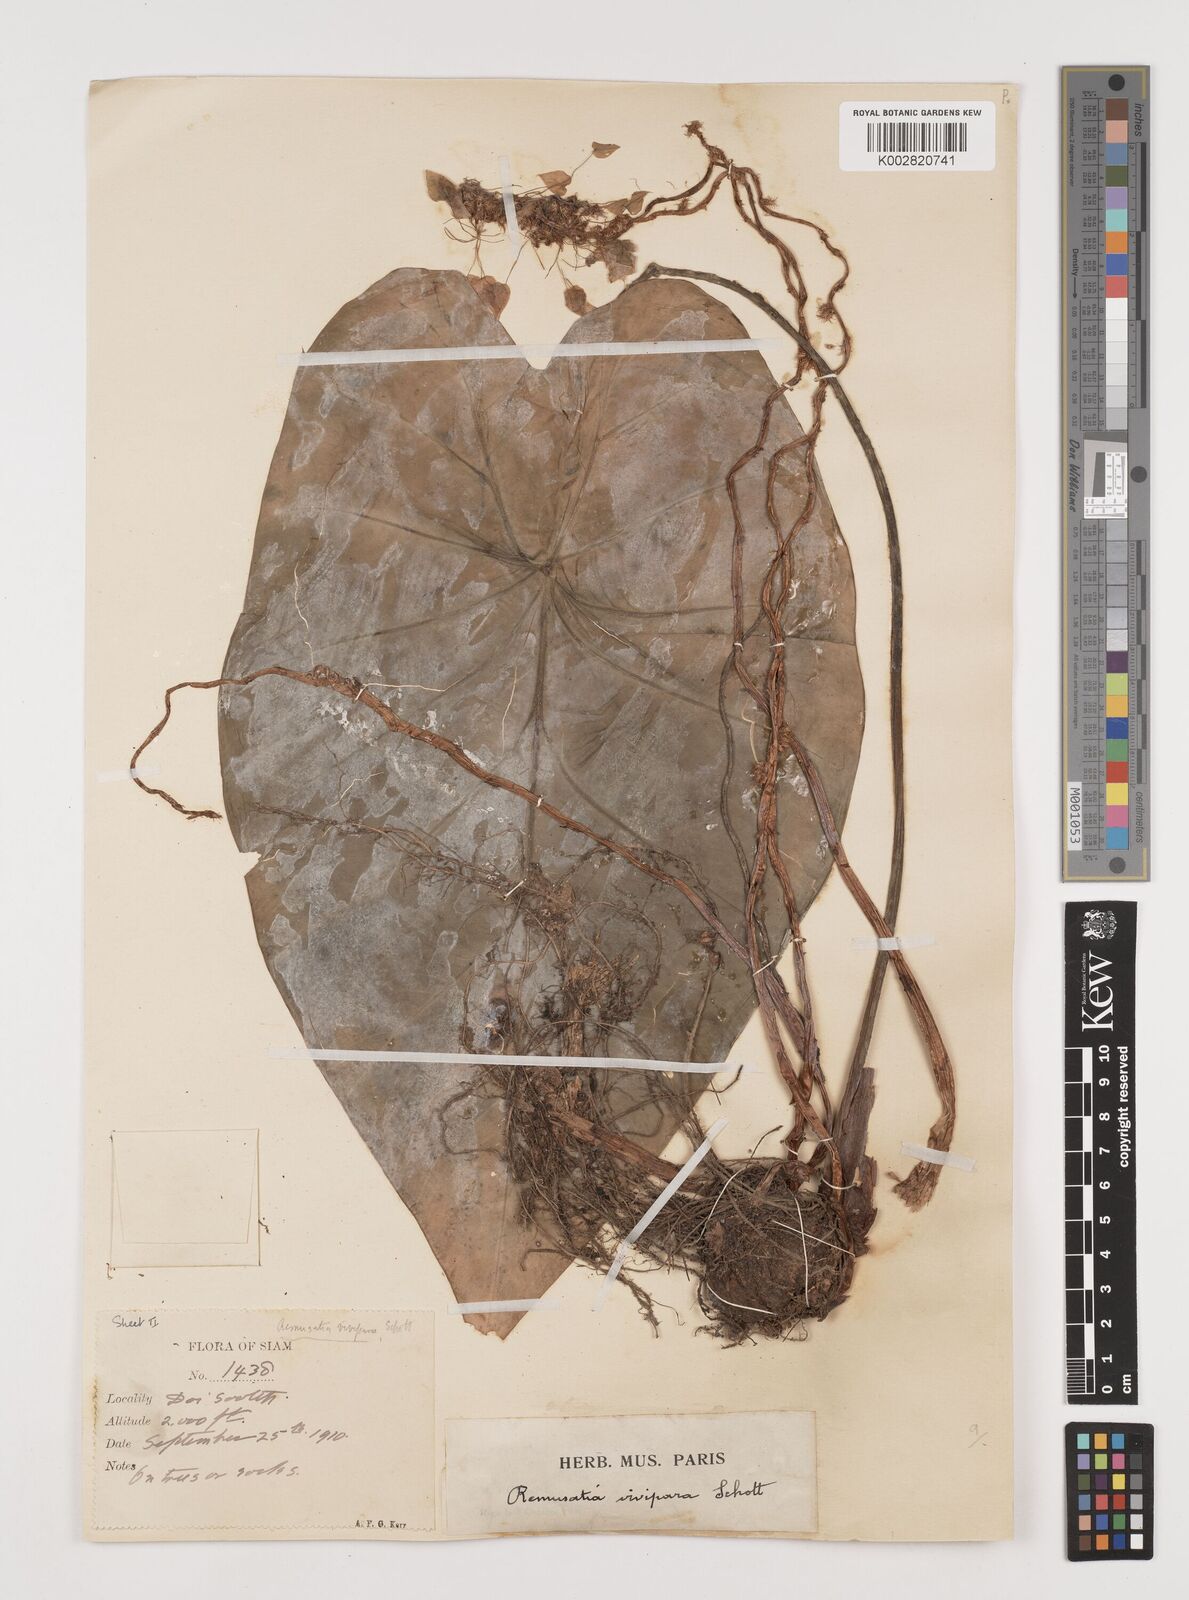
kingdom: Plantae
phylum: Tracheophyta
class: Liliopsida
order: Alismatales
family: Araceae
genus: Remusatia
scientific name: Remusatia vivipara
